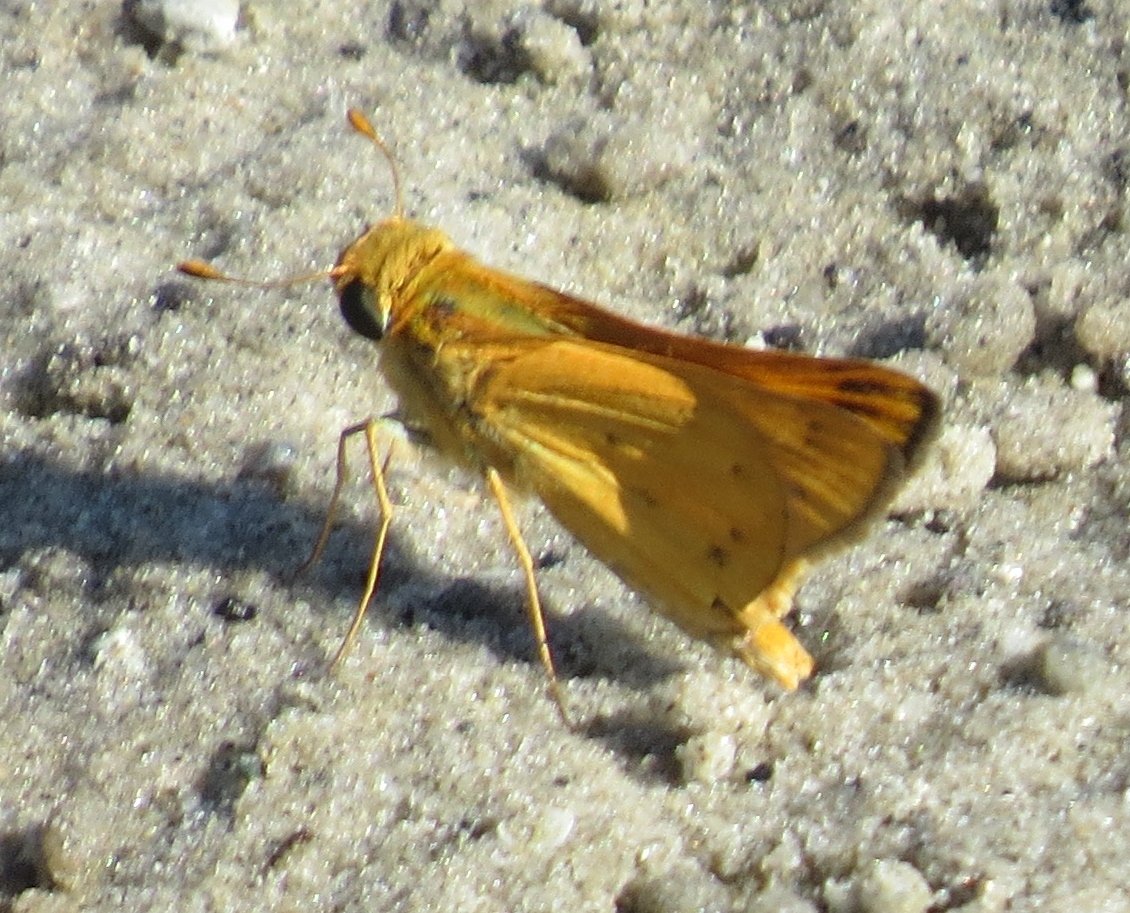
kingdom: Animalia
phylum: Arthropoda
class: Insecta
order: Lepidoptera
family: Hesperiidae
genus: Hylephila
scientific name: Hylephila phyleus
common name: Fiery Skipper
